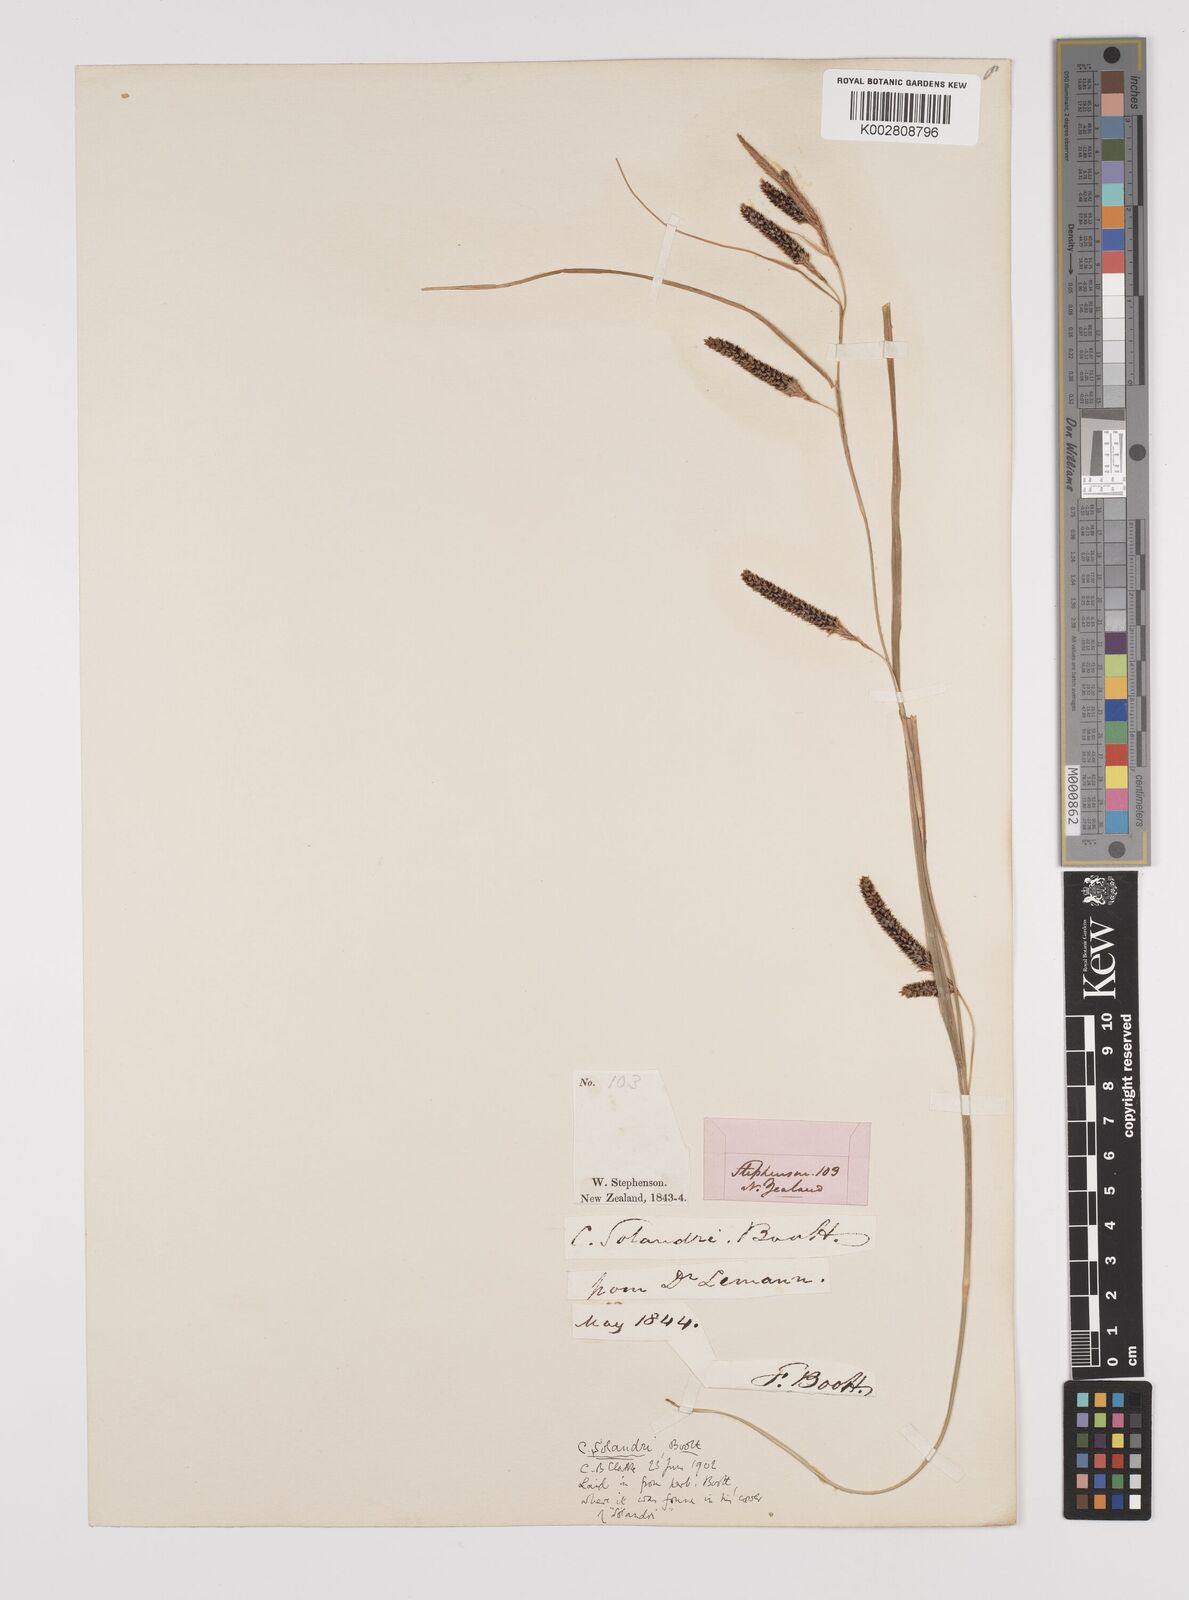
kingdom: Plantae
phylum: Tracheophyta
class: Liliopsida
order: Poales
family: Cyperaceae
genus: Carex
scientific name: Carex solandri
